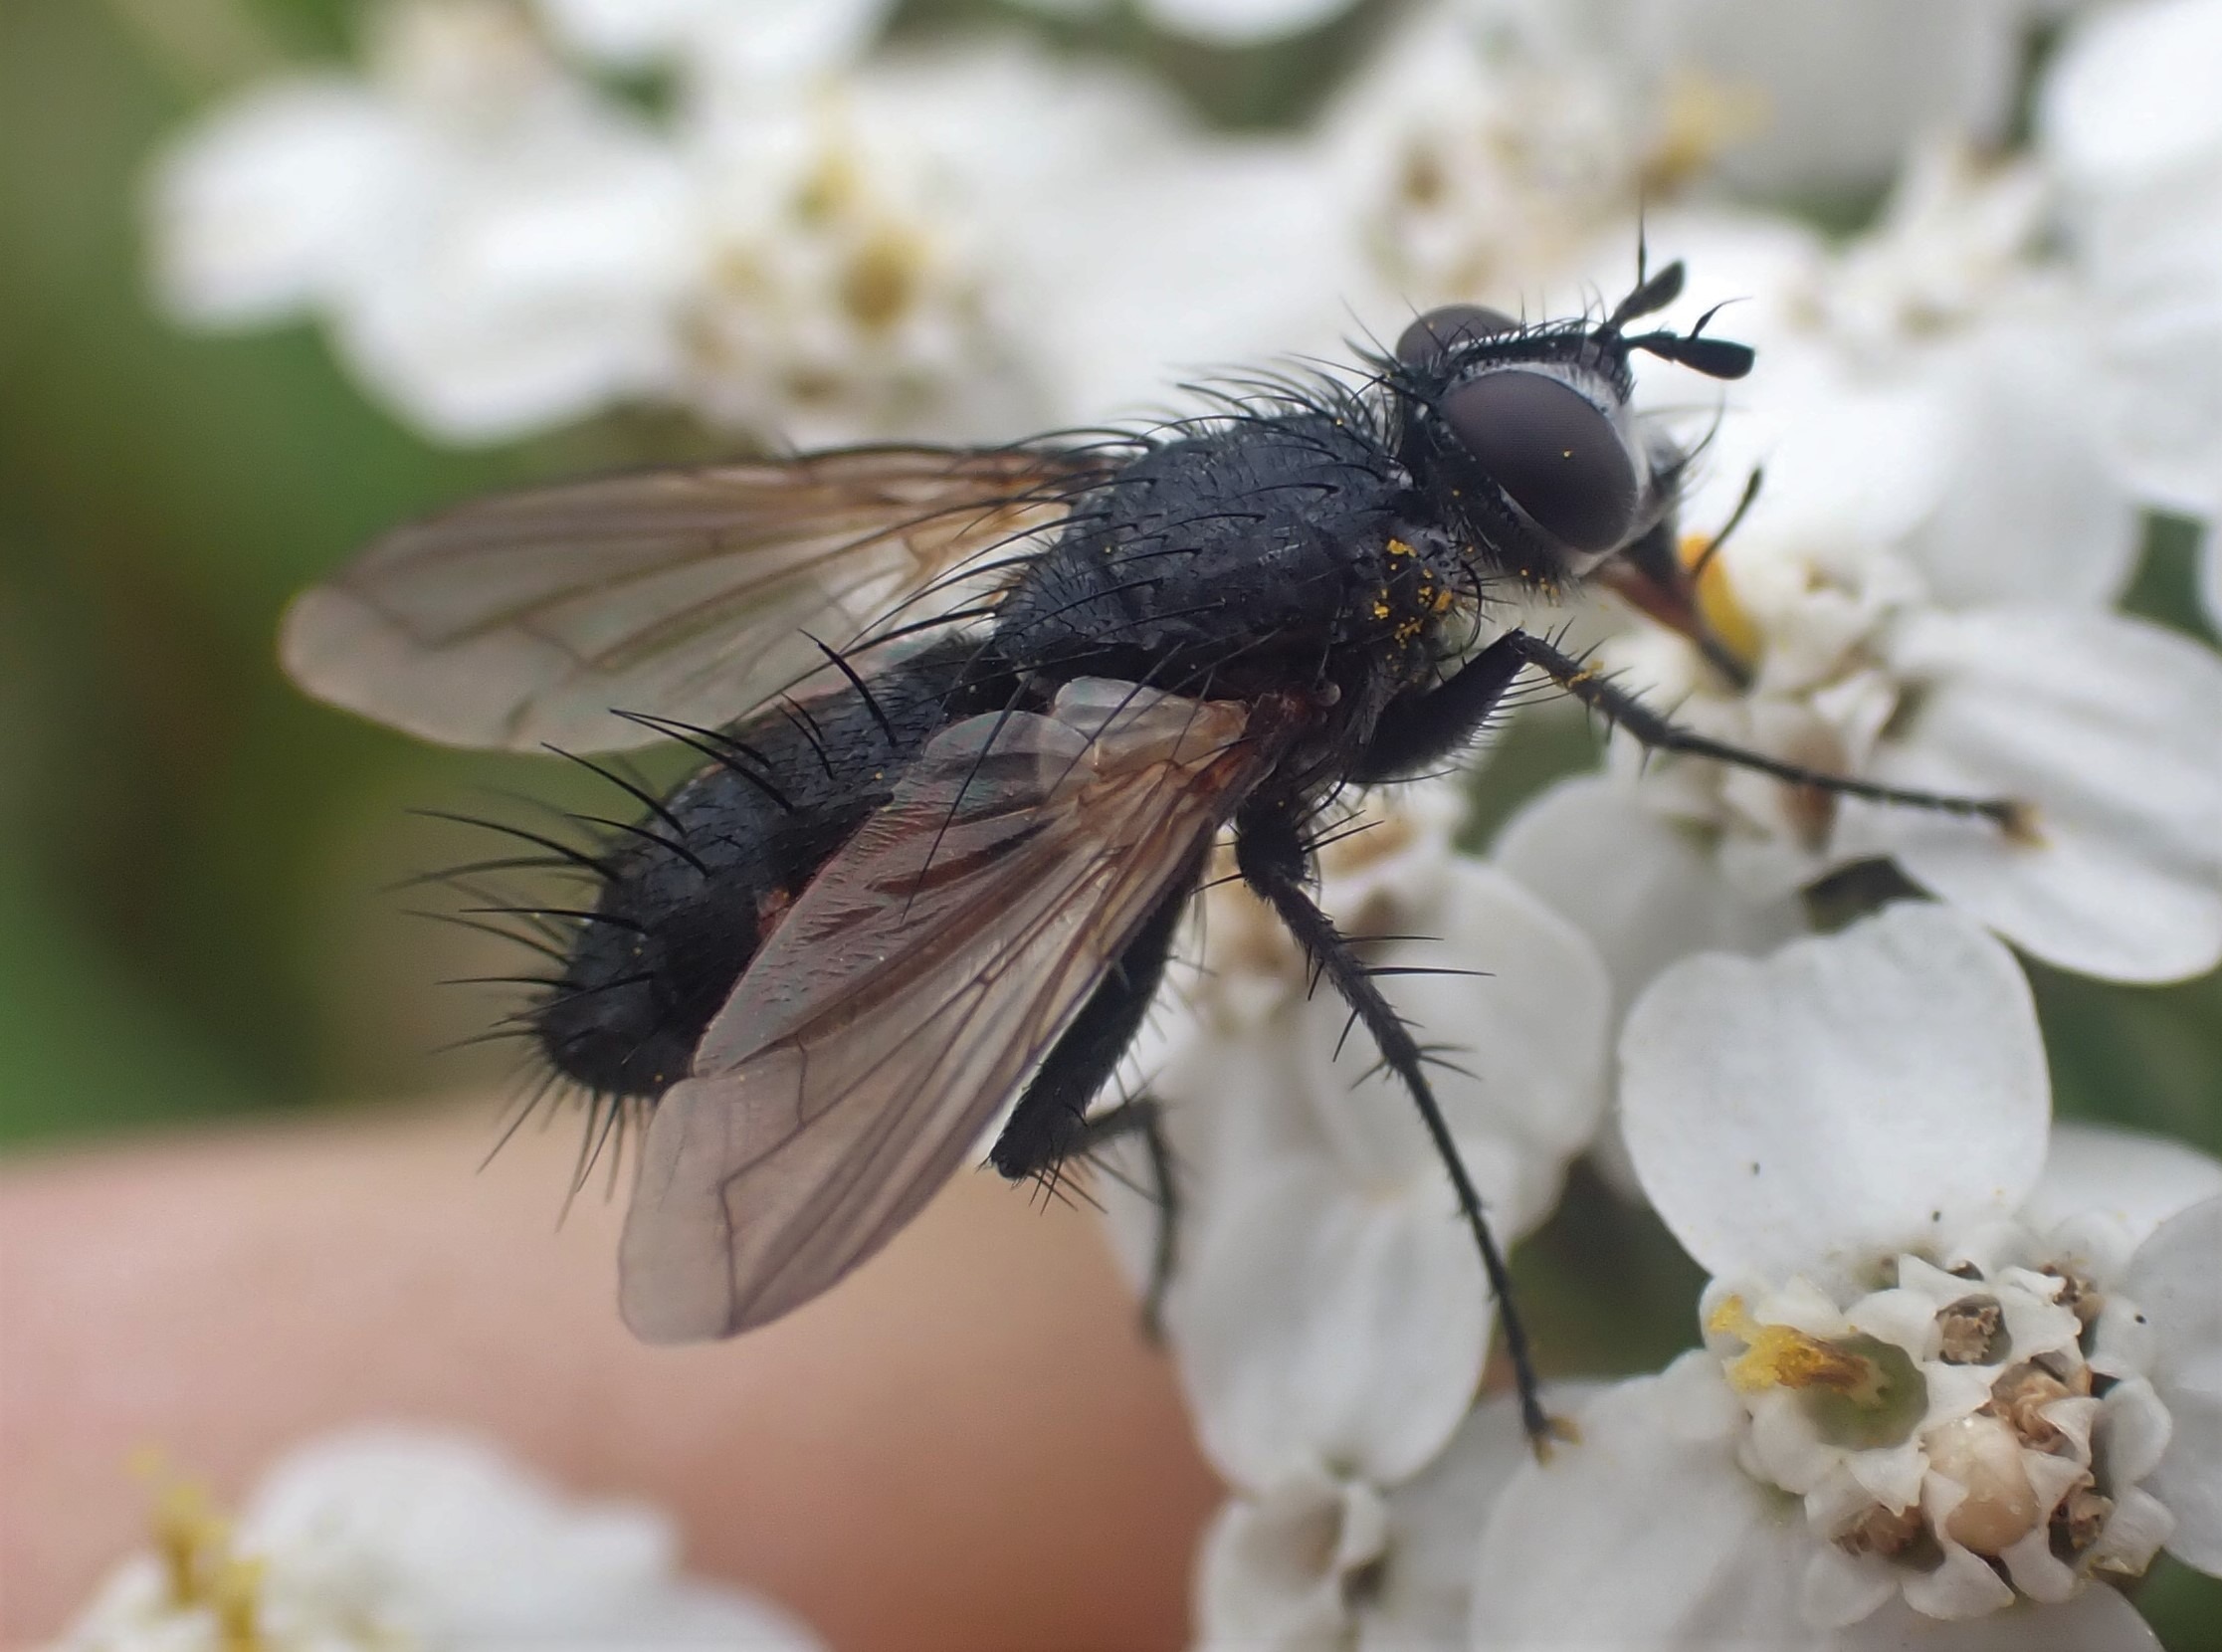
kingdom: Animalia
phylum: Arthropoda
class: Insecta
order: Diptera
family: Tachinidae
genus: Eriothrix
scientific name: Eriothrix rufomaculatus
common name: Rød snylteflue
